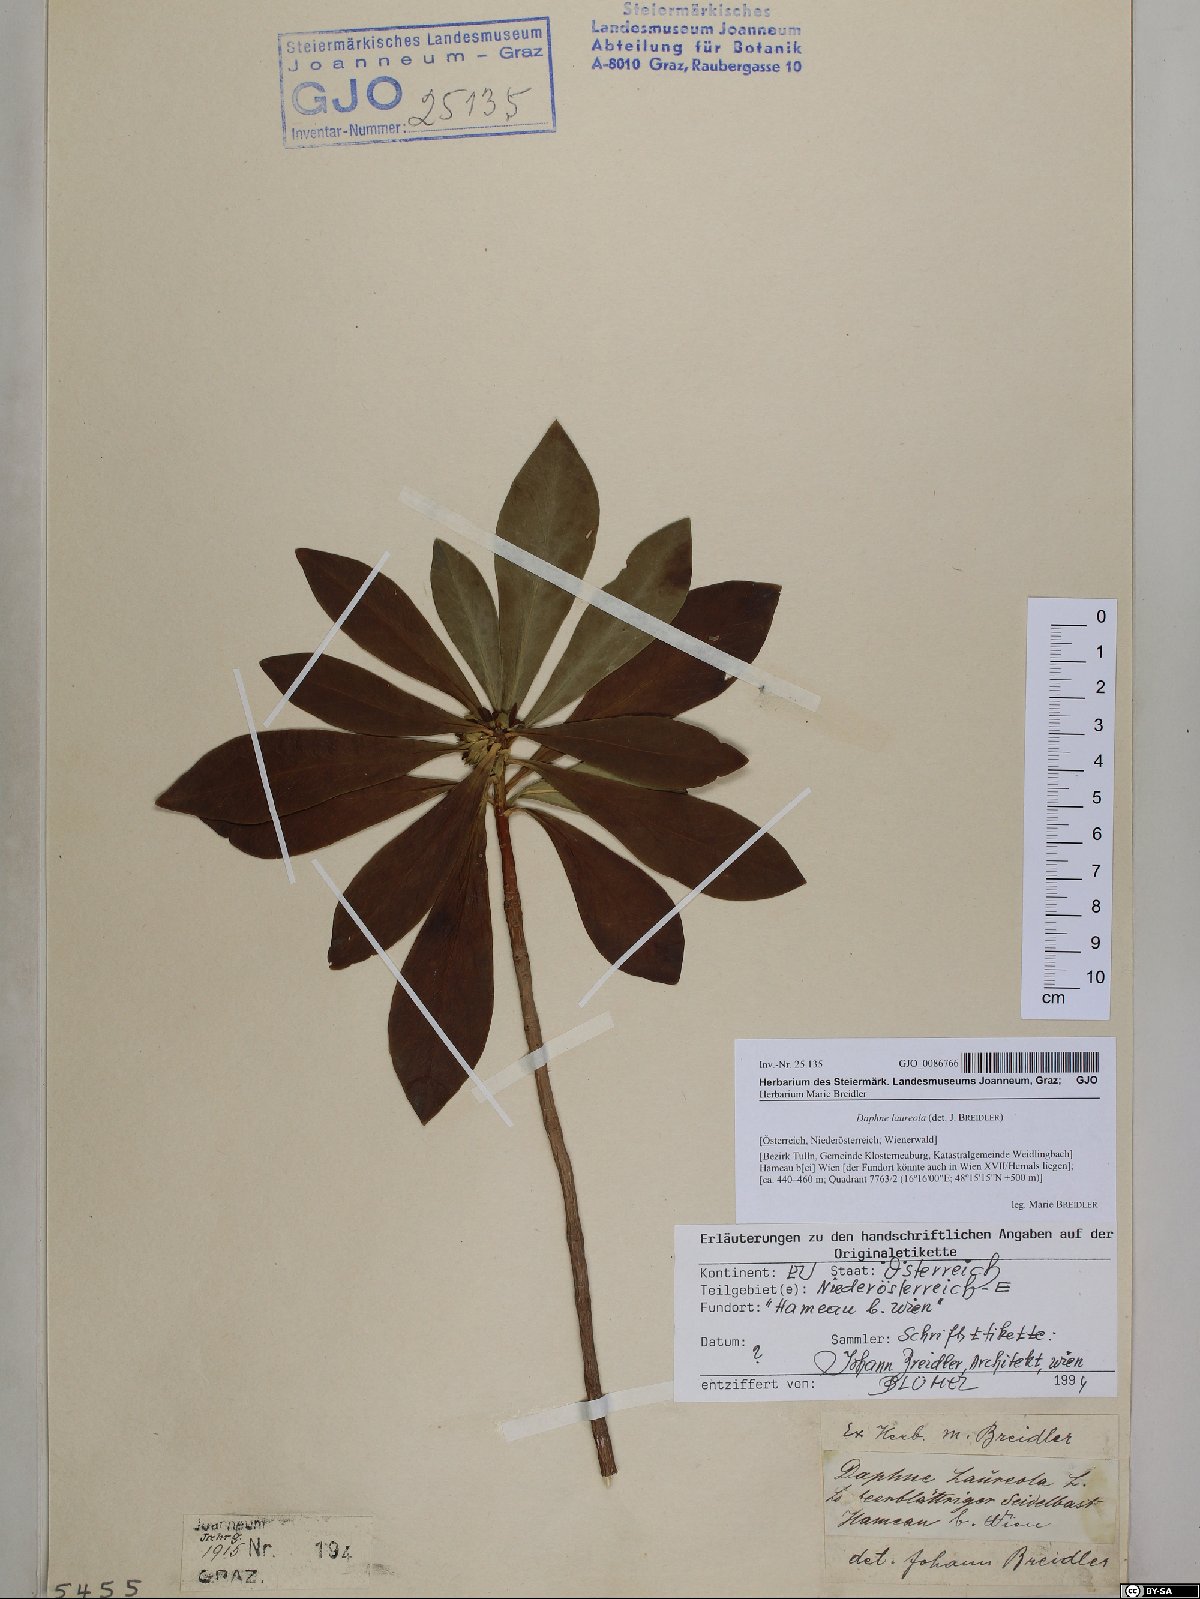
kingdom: Plantae
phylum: Tracheophyta
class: Magnoliopsida
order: Malvales
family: Thymelaeaceae
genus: Daphne
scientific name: Daphne laureola
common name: Spurge-laurel
